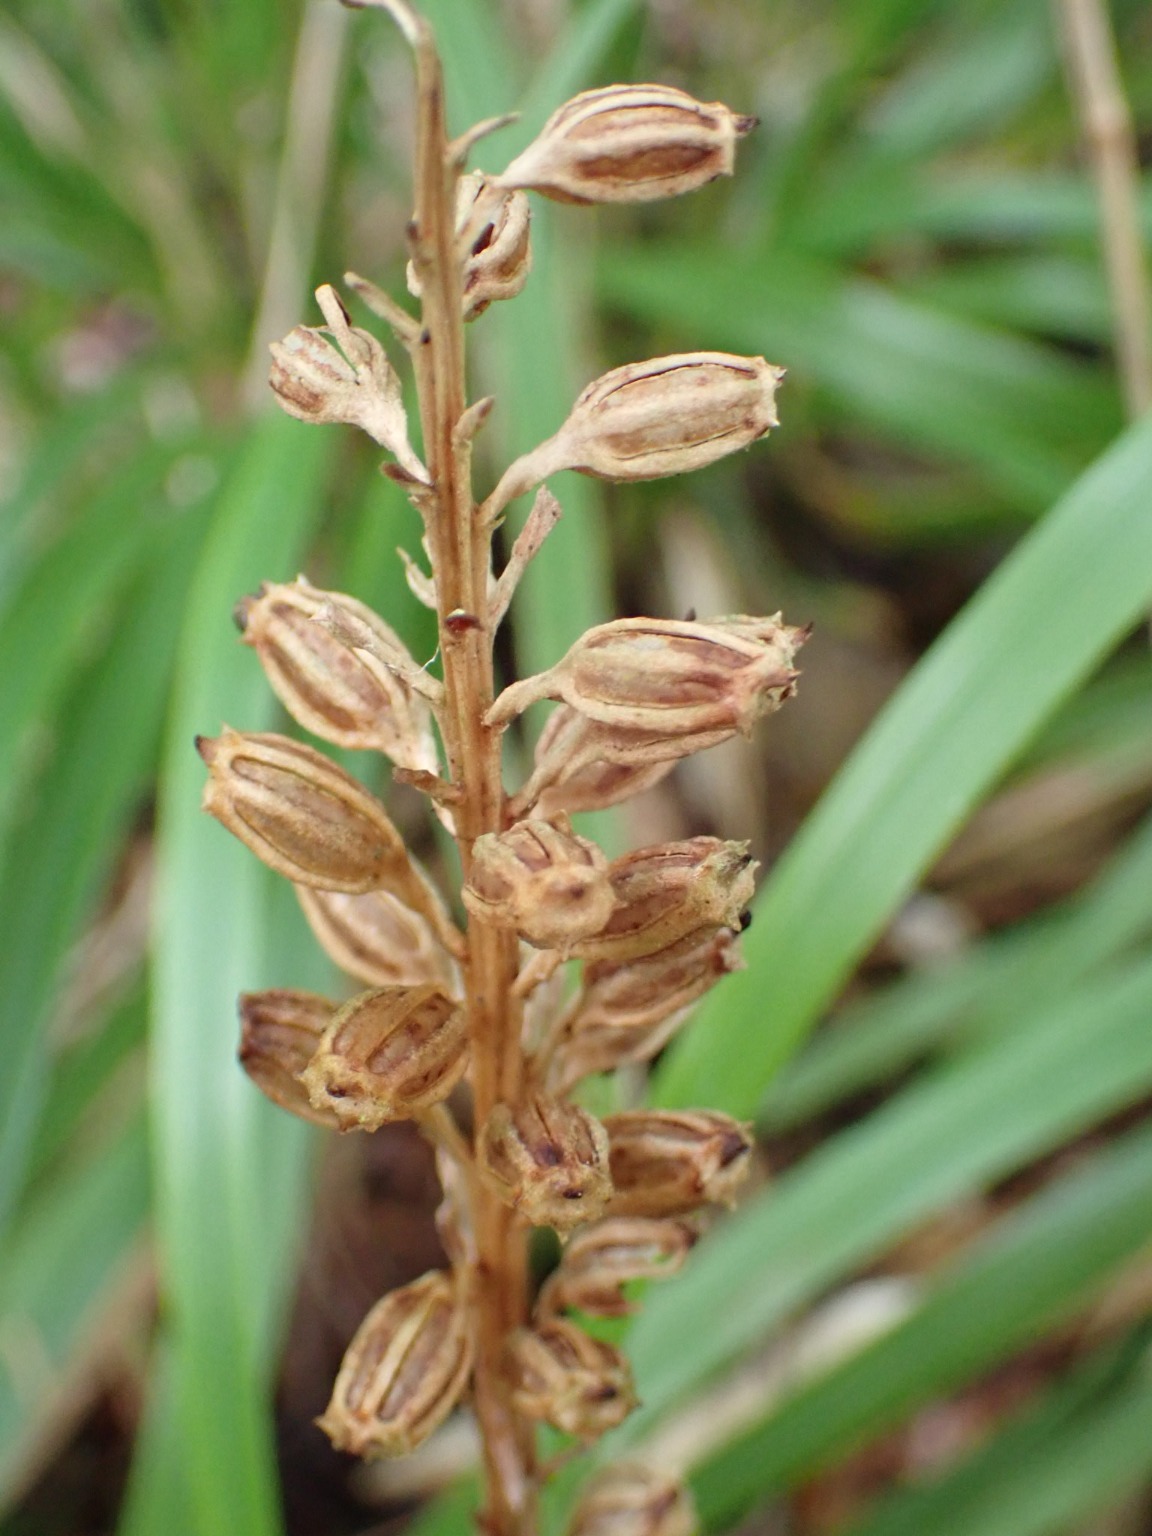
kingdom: Plantae
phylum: Tracheophyta
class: Liliopsida
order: Asparagales
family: Orchidaceae
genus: Neottia
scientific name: Neottia nidus-avis
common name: Rederod
